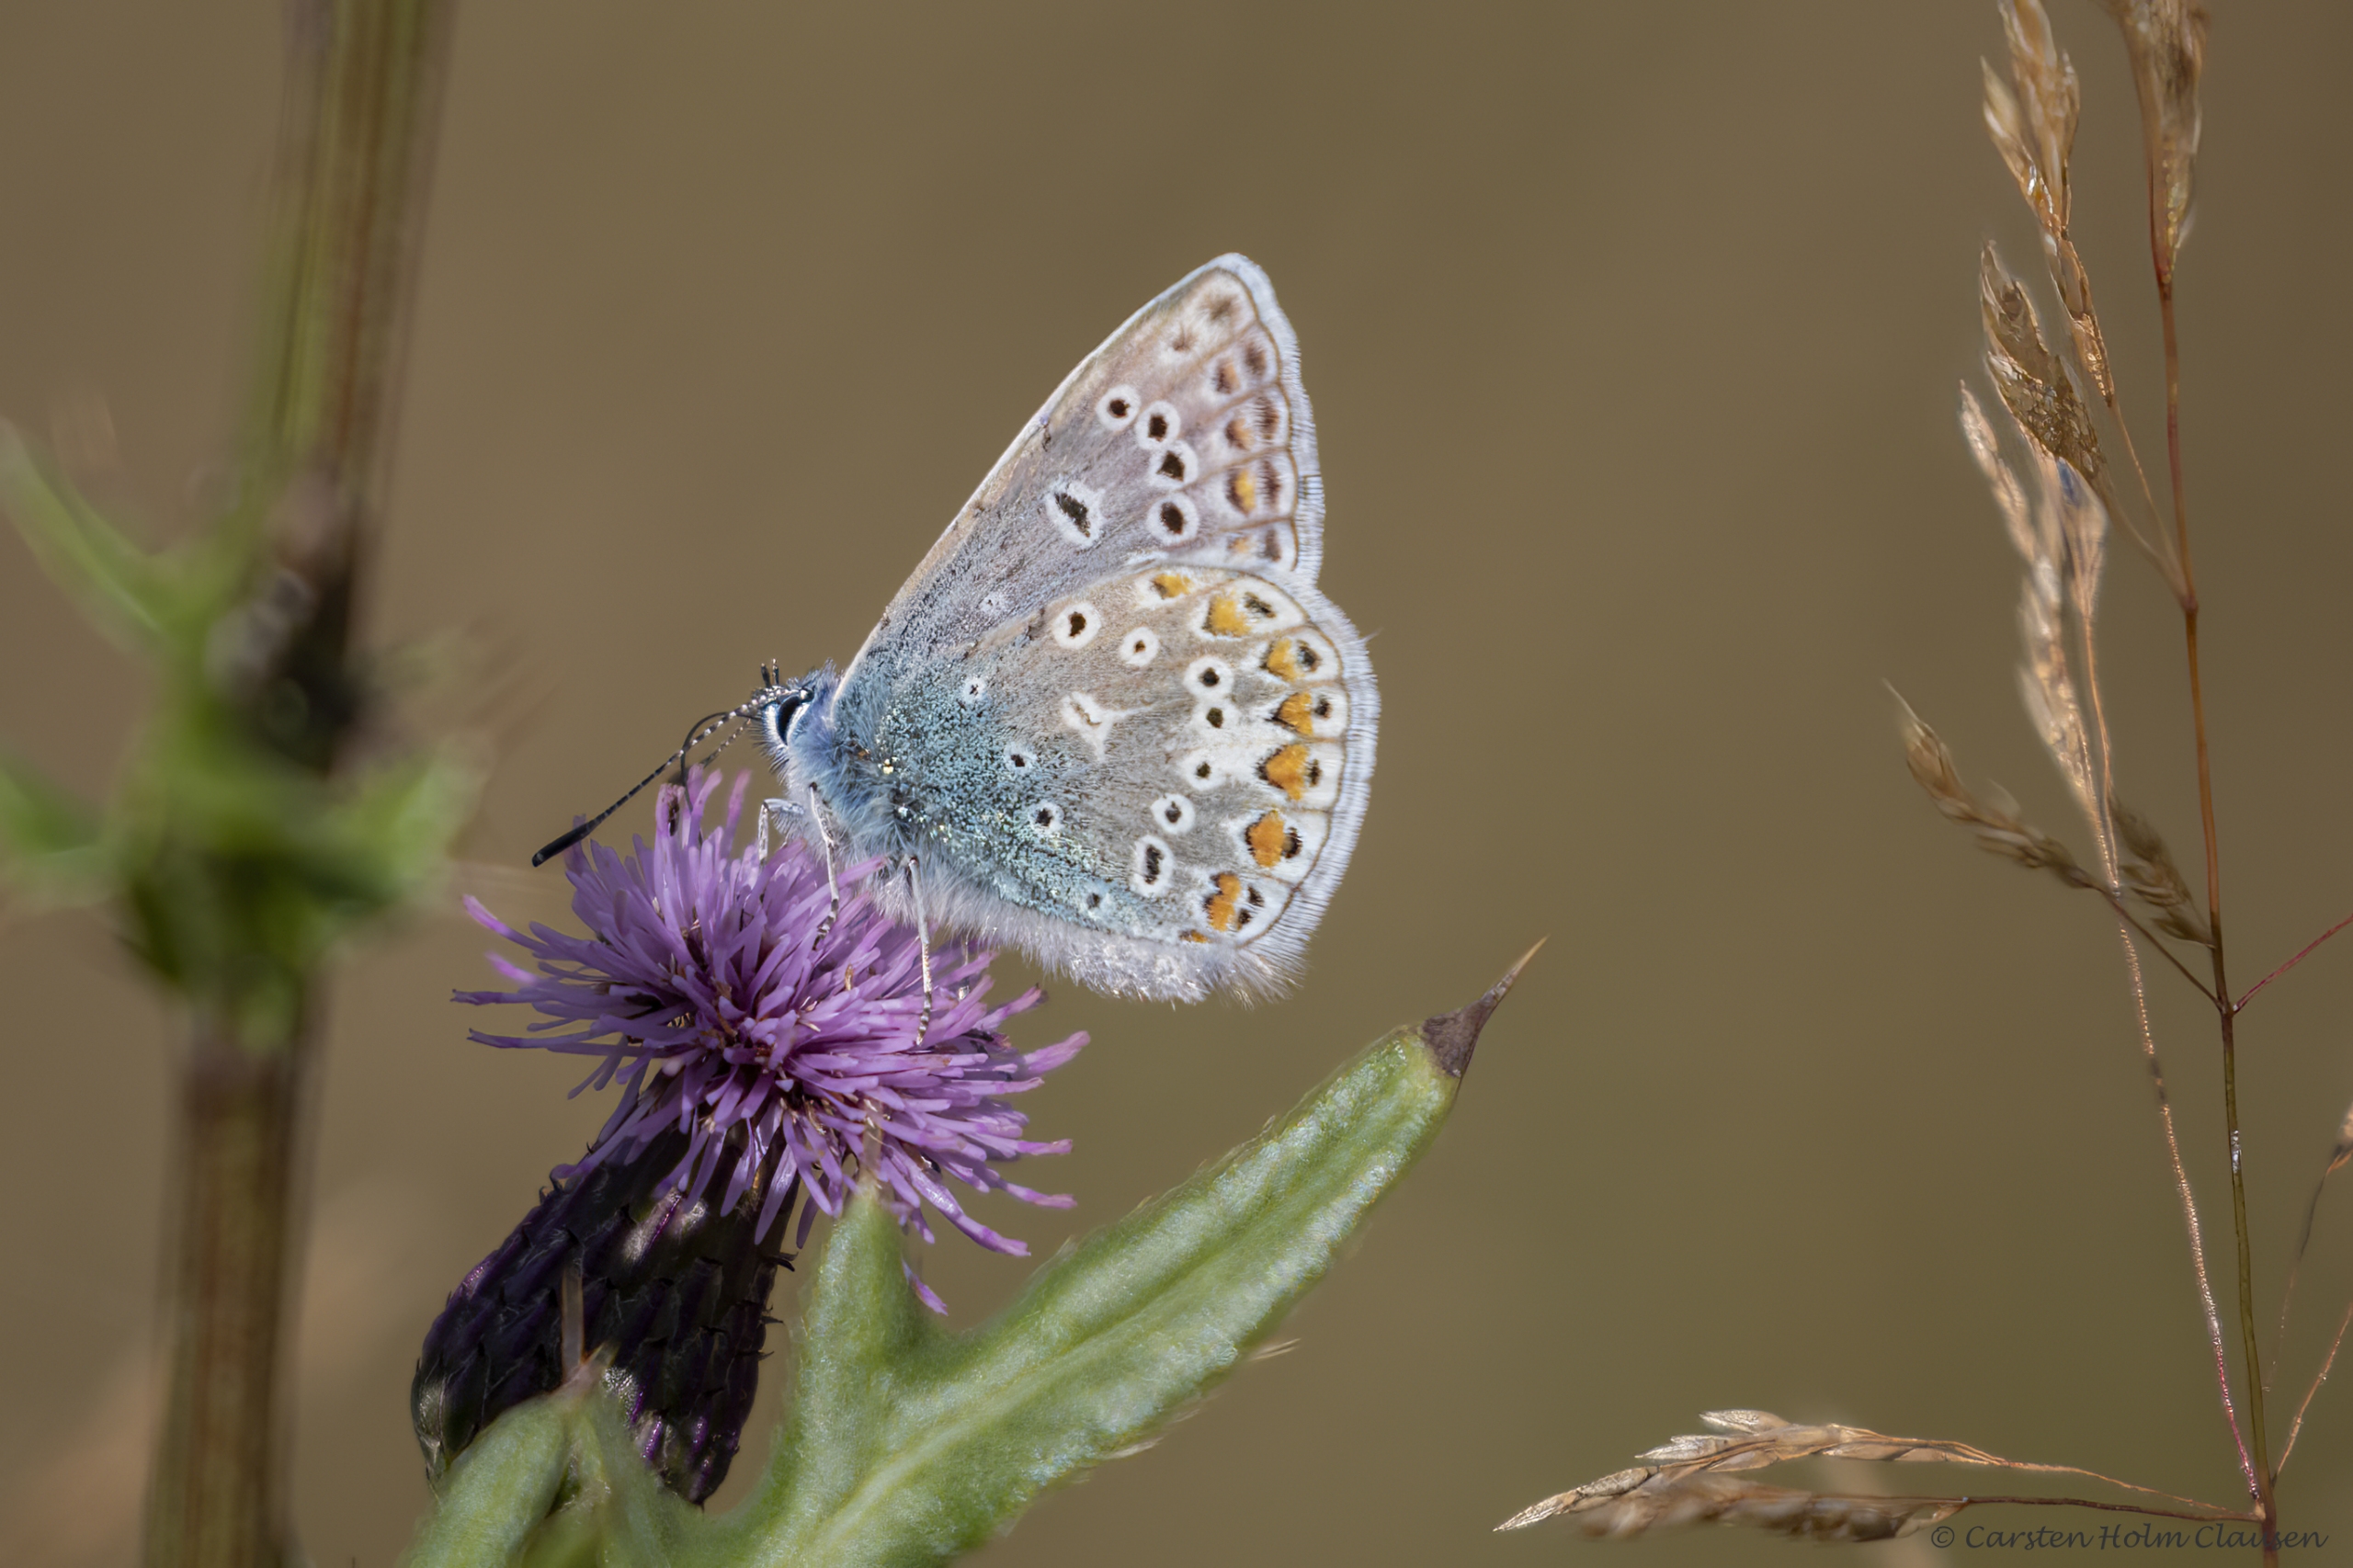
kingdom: Animalia
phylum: Arthropoda
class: Insecta
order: Lepidoptera
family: Lycaenidae
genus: Polyommatus
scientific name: Polyommatus icarus
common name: Almindelig blåfugl
